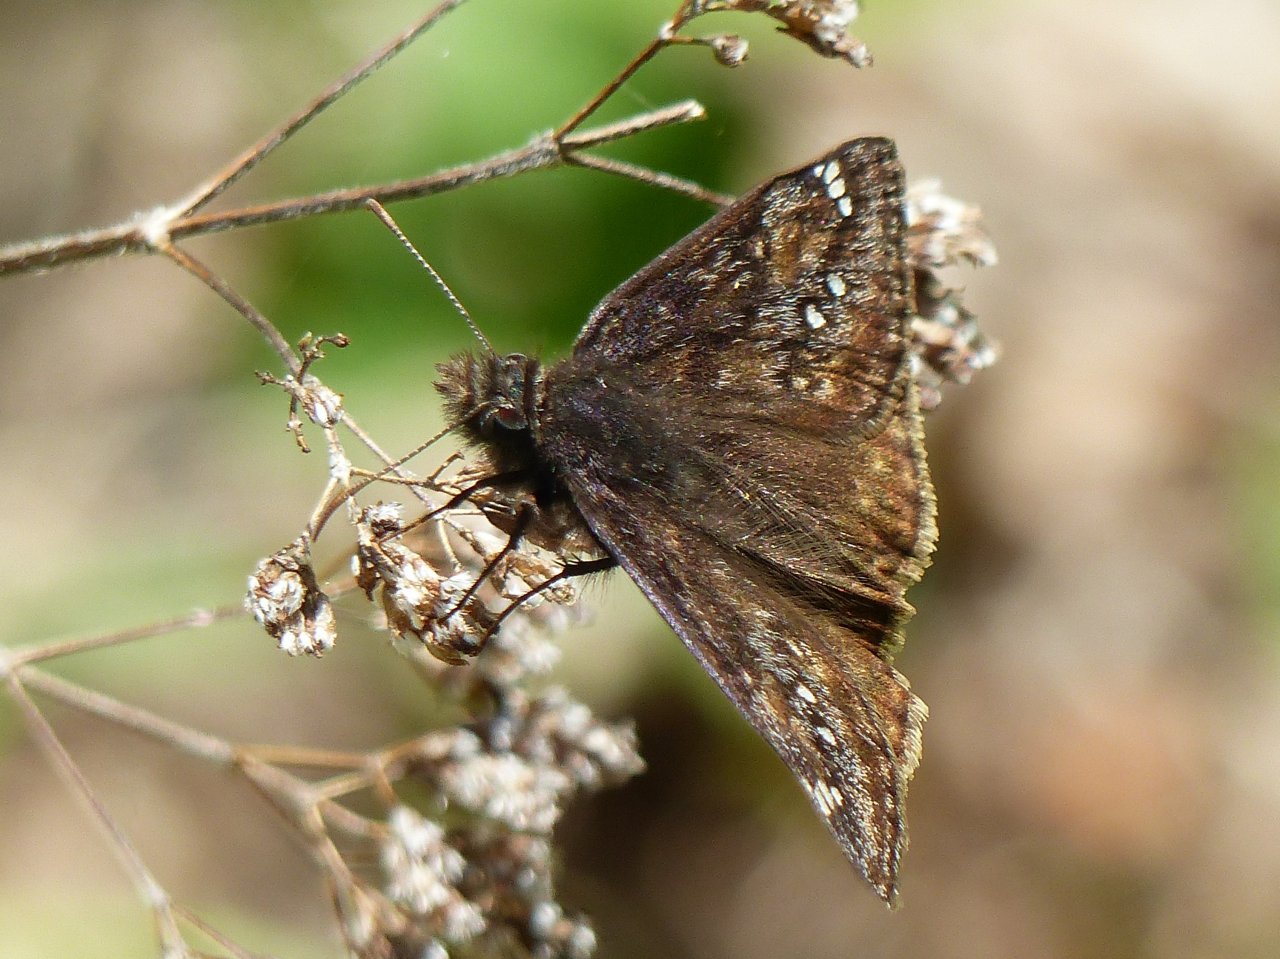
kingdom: Animalia
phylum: Arthropoda
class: Insecta
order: Lepidoptera
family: Hesperiidae
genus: Gesta
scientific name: Gesta
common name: Juvenal's Duskywing
